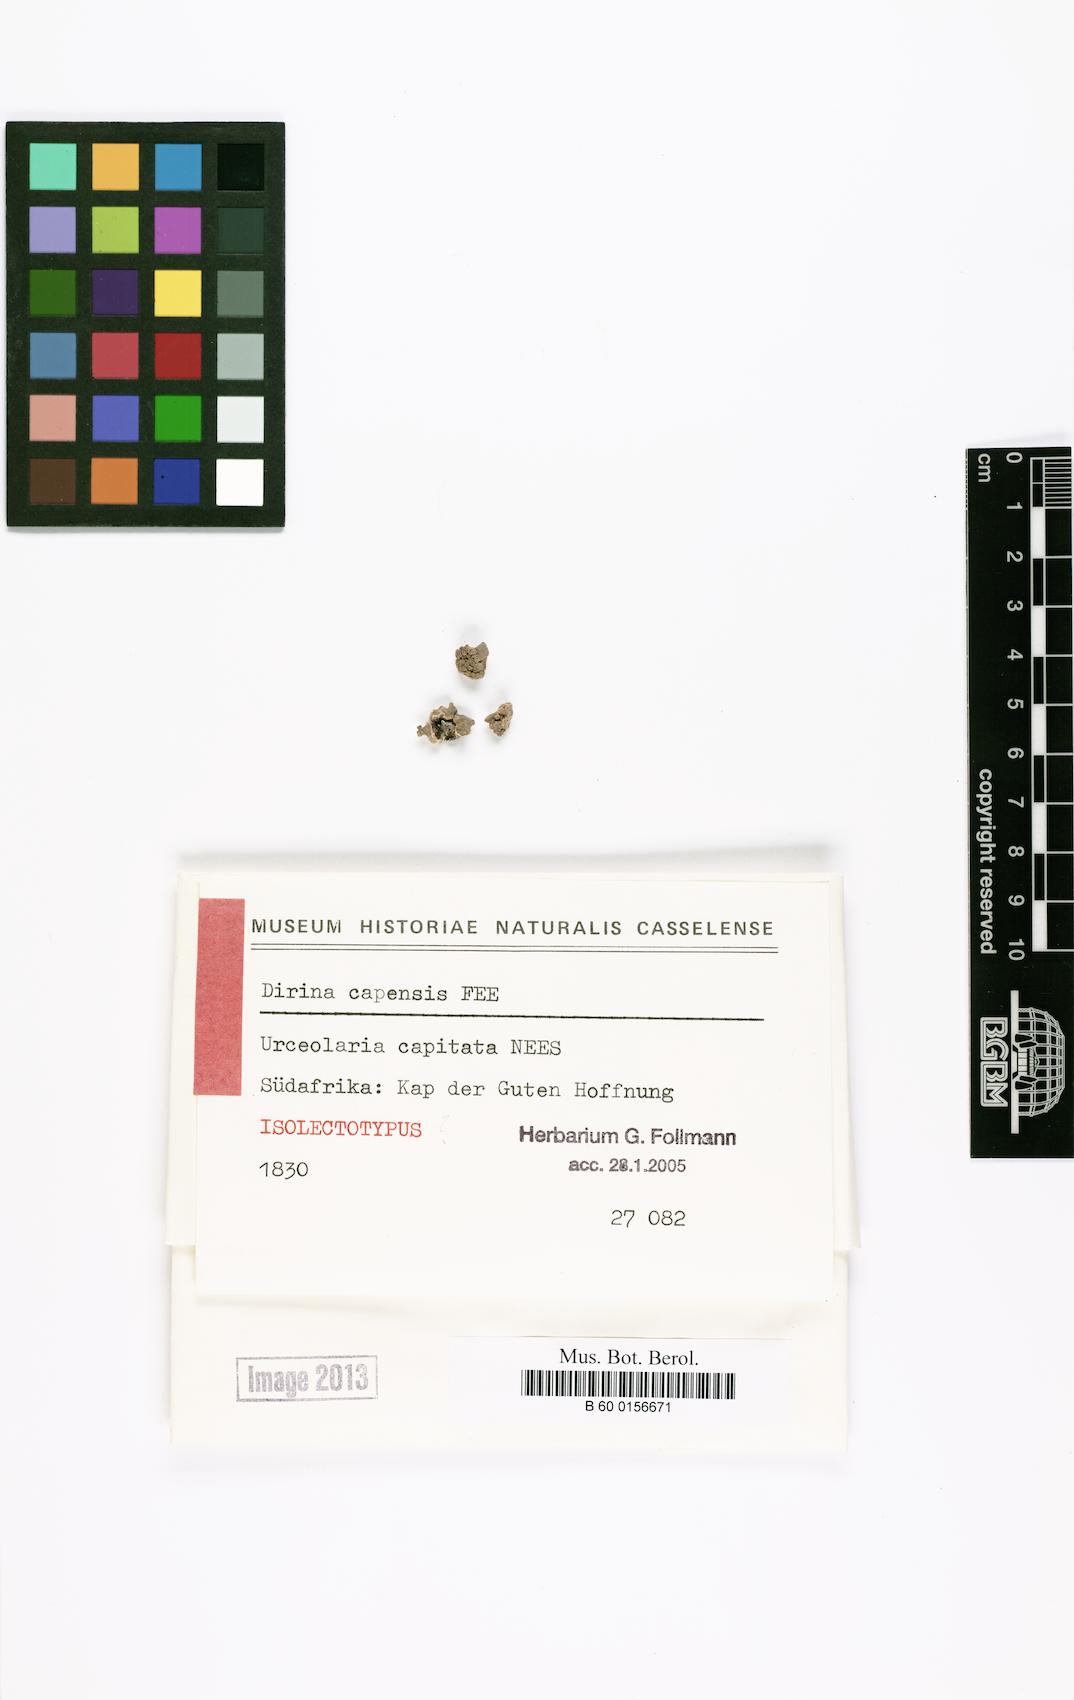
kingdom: Fungi
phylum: Ascomycota
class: Arthoniomycetes
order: Arthoniales
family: Roccellaceae
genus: Roccellina
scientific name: Roccellina capensis
